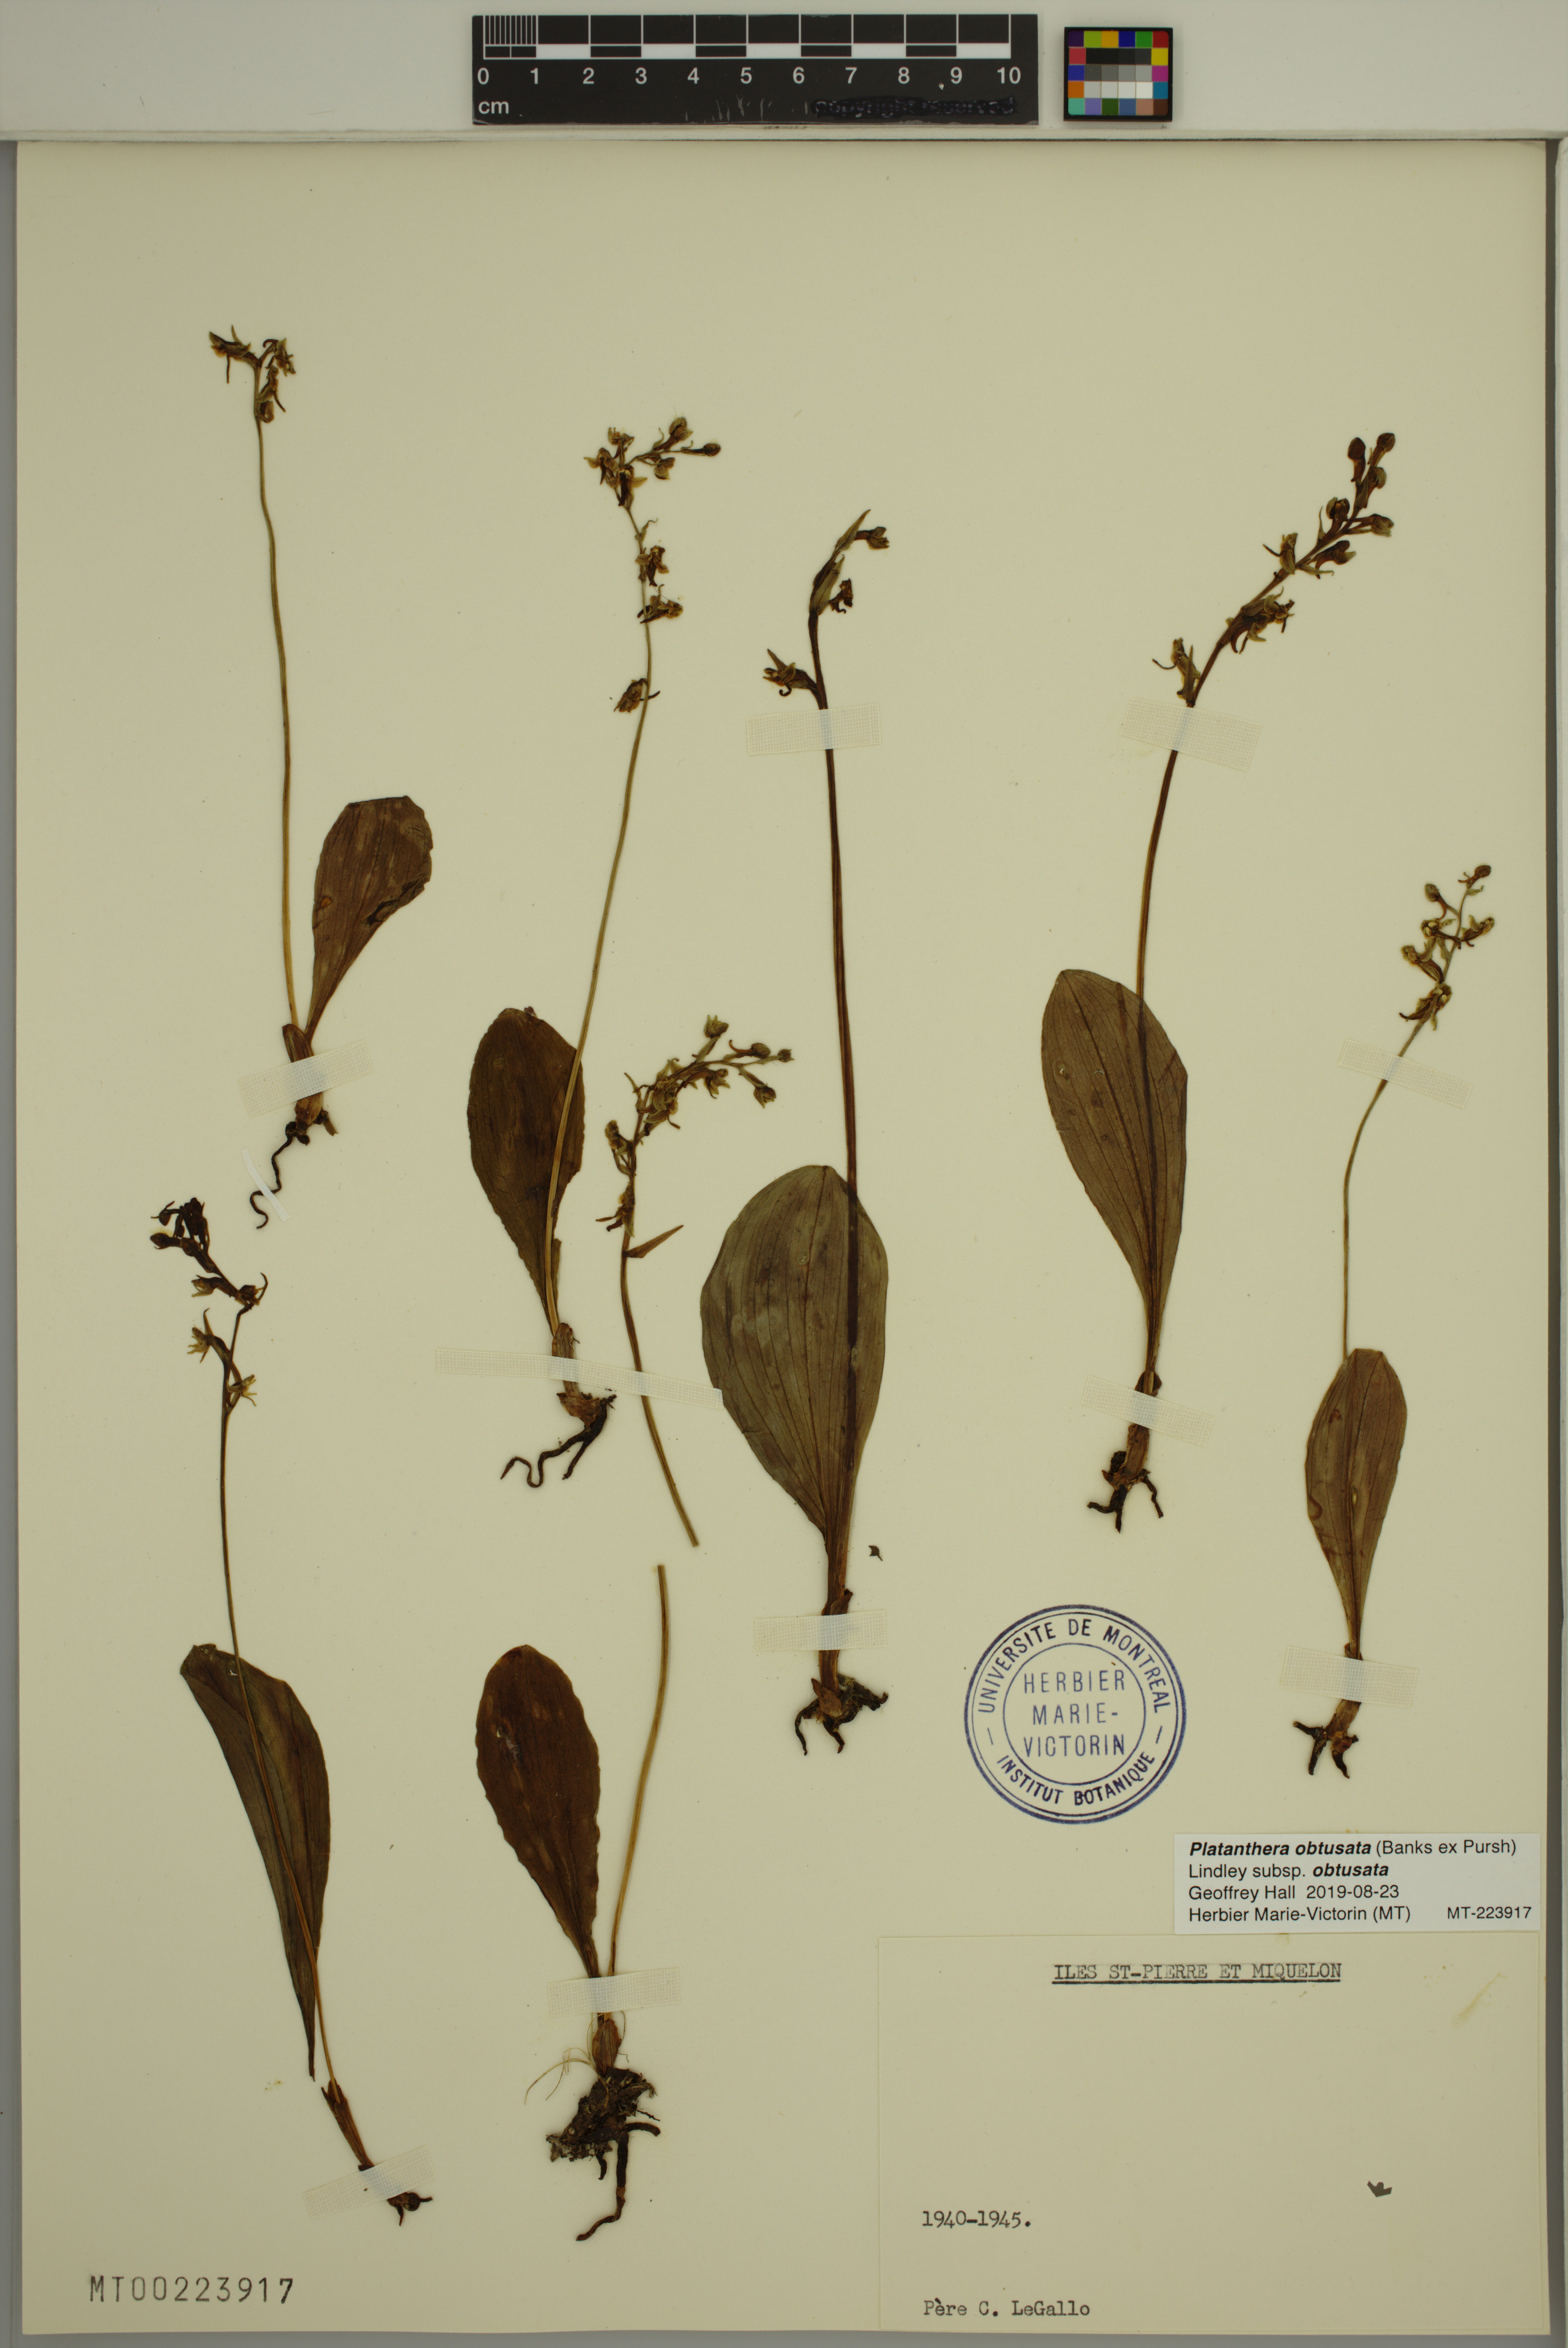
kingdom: Plantae
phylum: Tracheophyta
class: Liliopsida
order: Asparagales
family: Orchidaceae
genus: Platanthera
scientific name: Platanthera obtusata
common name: Blunt bog orchid
